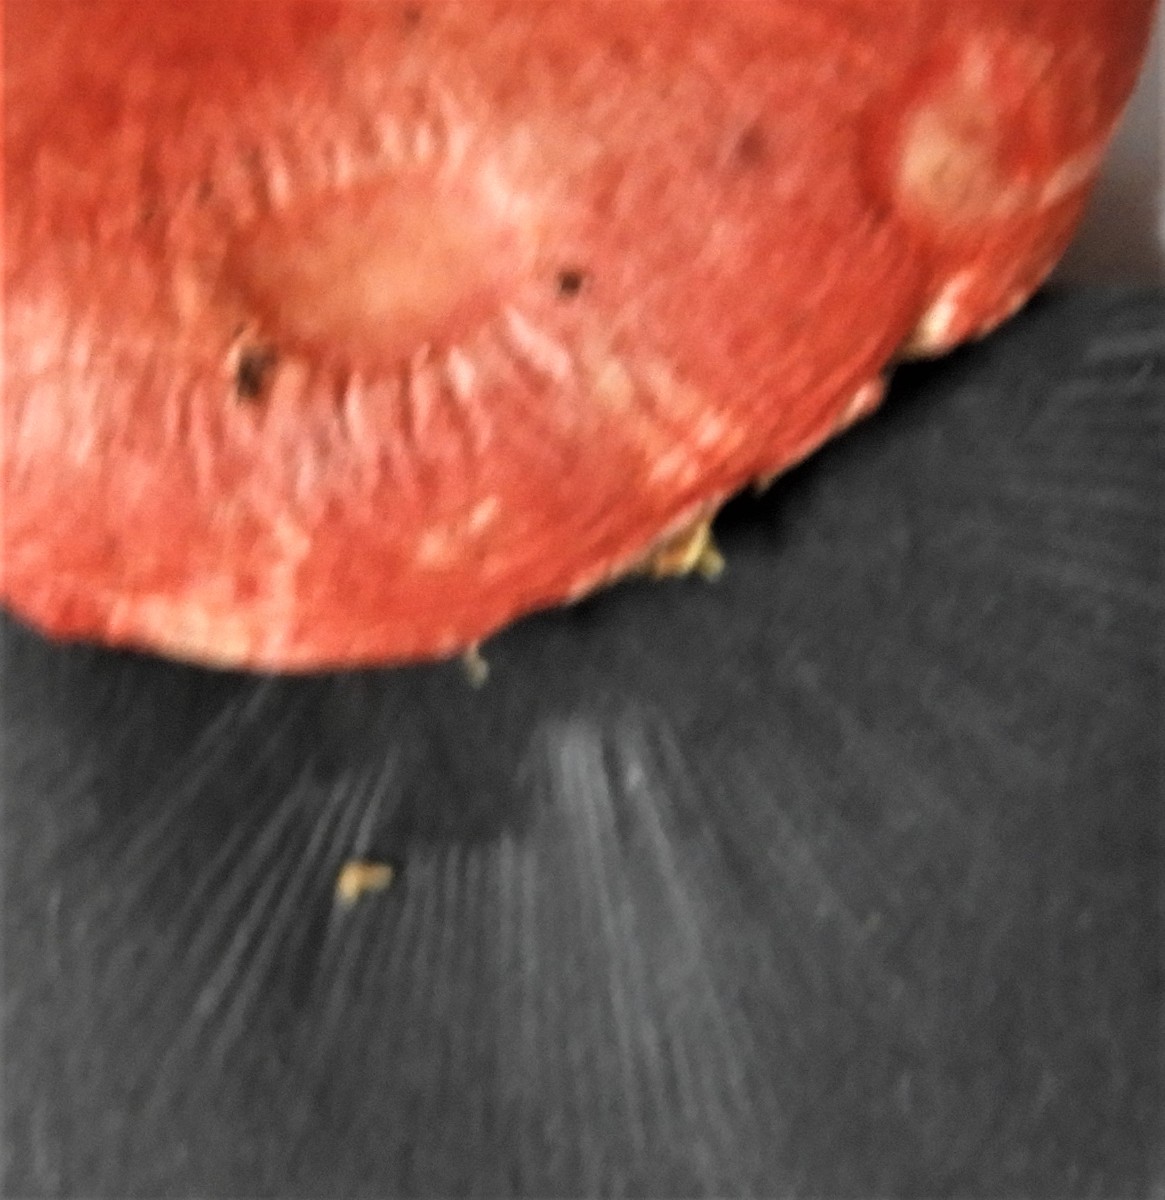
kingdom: Fungi
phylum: Basidiomycota
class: Agaricomycetes
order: Russulales
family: Russulaceae
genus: Russula
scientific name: Russula
